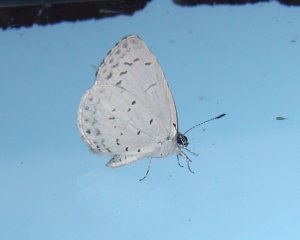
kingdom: Animalia
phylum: Arthropoda
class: Insecta
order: Lepidoptera
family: Lycaenidae
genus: Cyaniris
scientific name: Cyaniris neglecta
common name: Summer Azure
